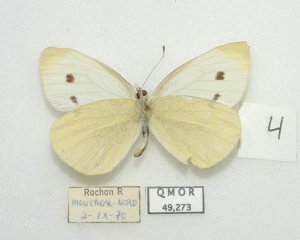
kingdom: Animalia
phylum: Arthropoda
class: Insecta
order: Lepidoptera
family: Pieridae
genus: Pieris
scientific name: Pieris rapae
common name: Cabbage White
